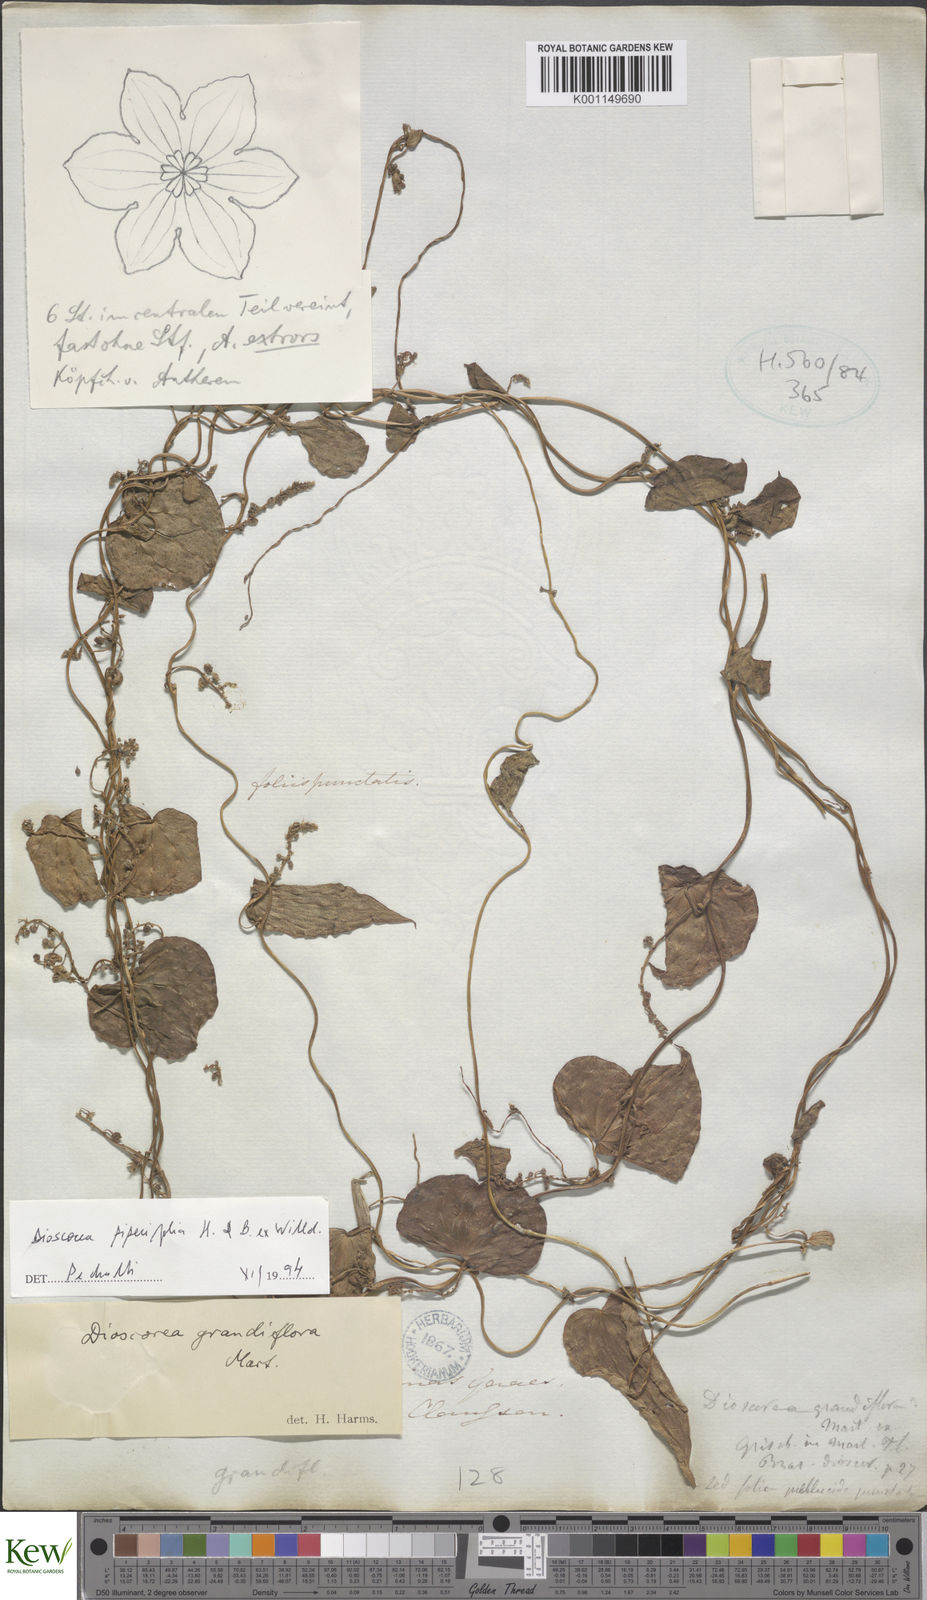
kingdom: Plantae
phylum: Tracheophyta
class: Liliopsida
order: Dioscoreales
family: Dioscoreaceae
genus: Dioscorea
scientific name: Dioscorea grandiflora
